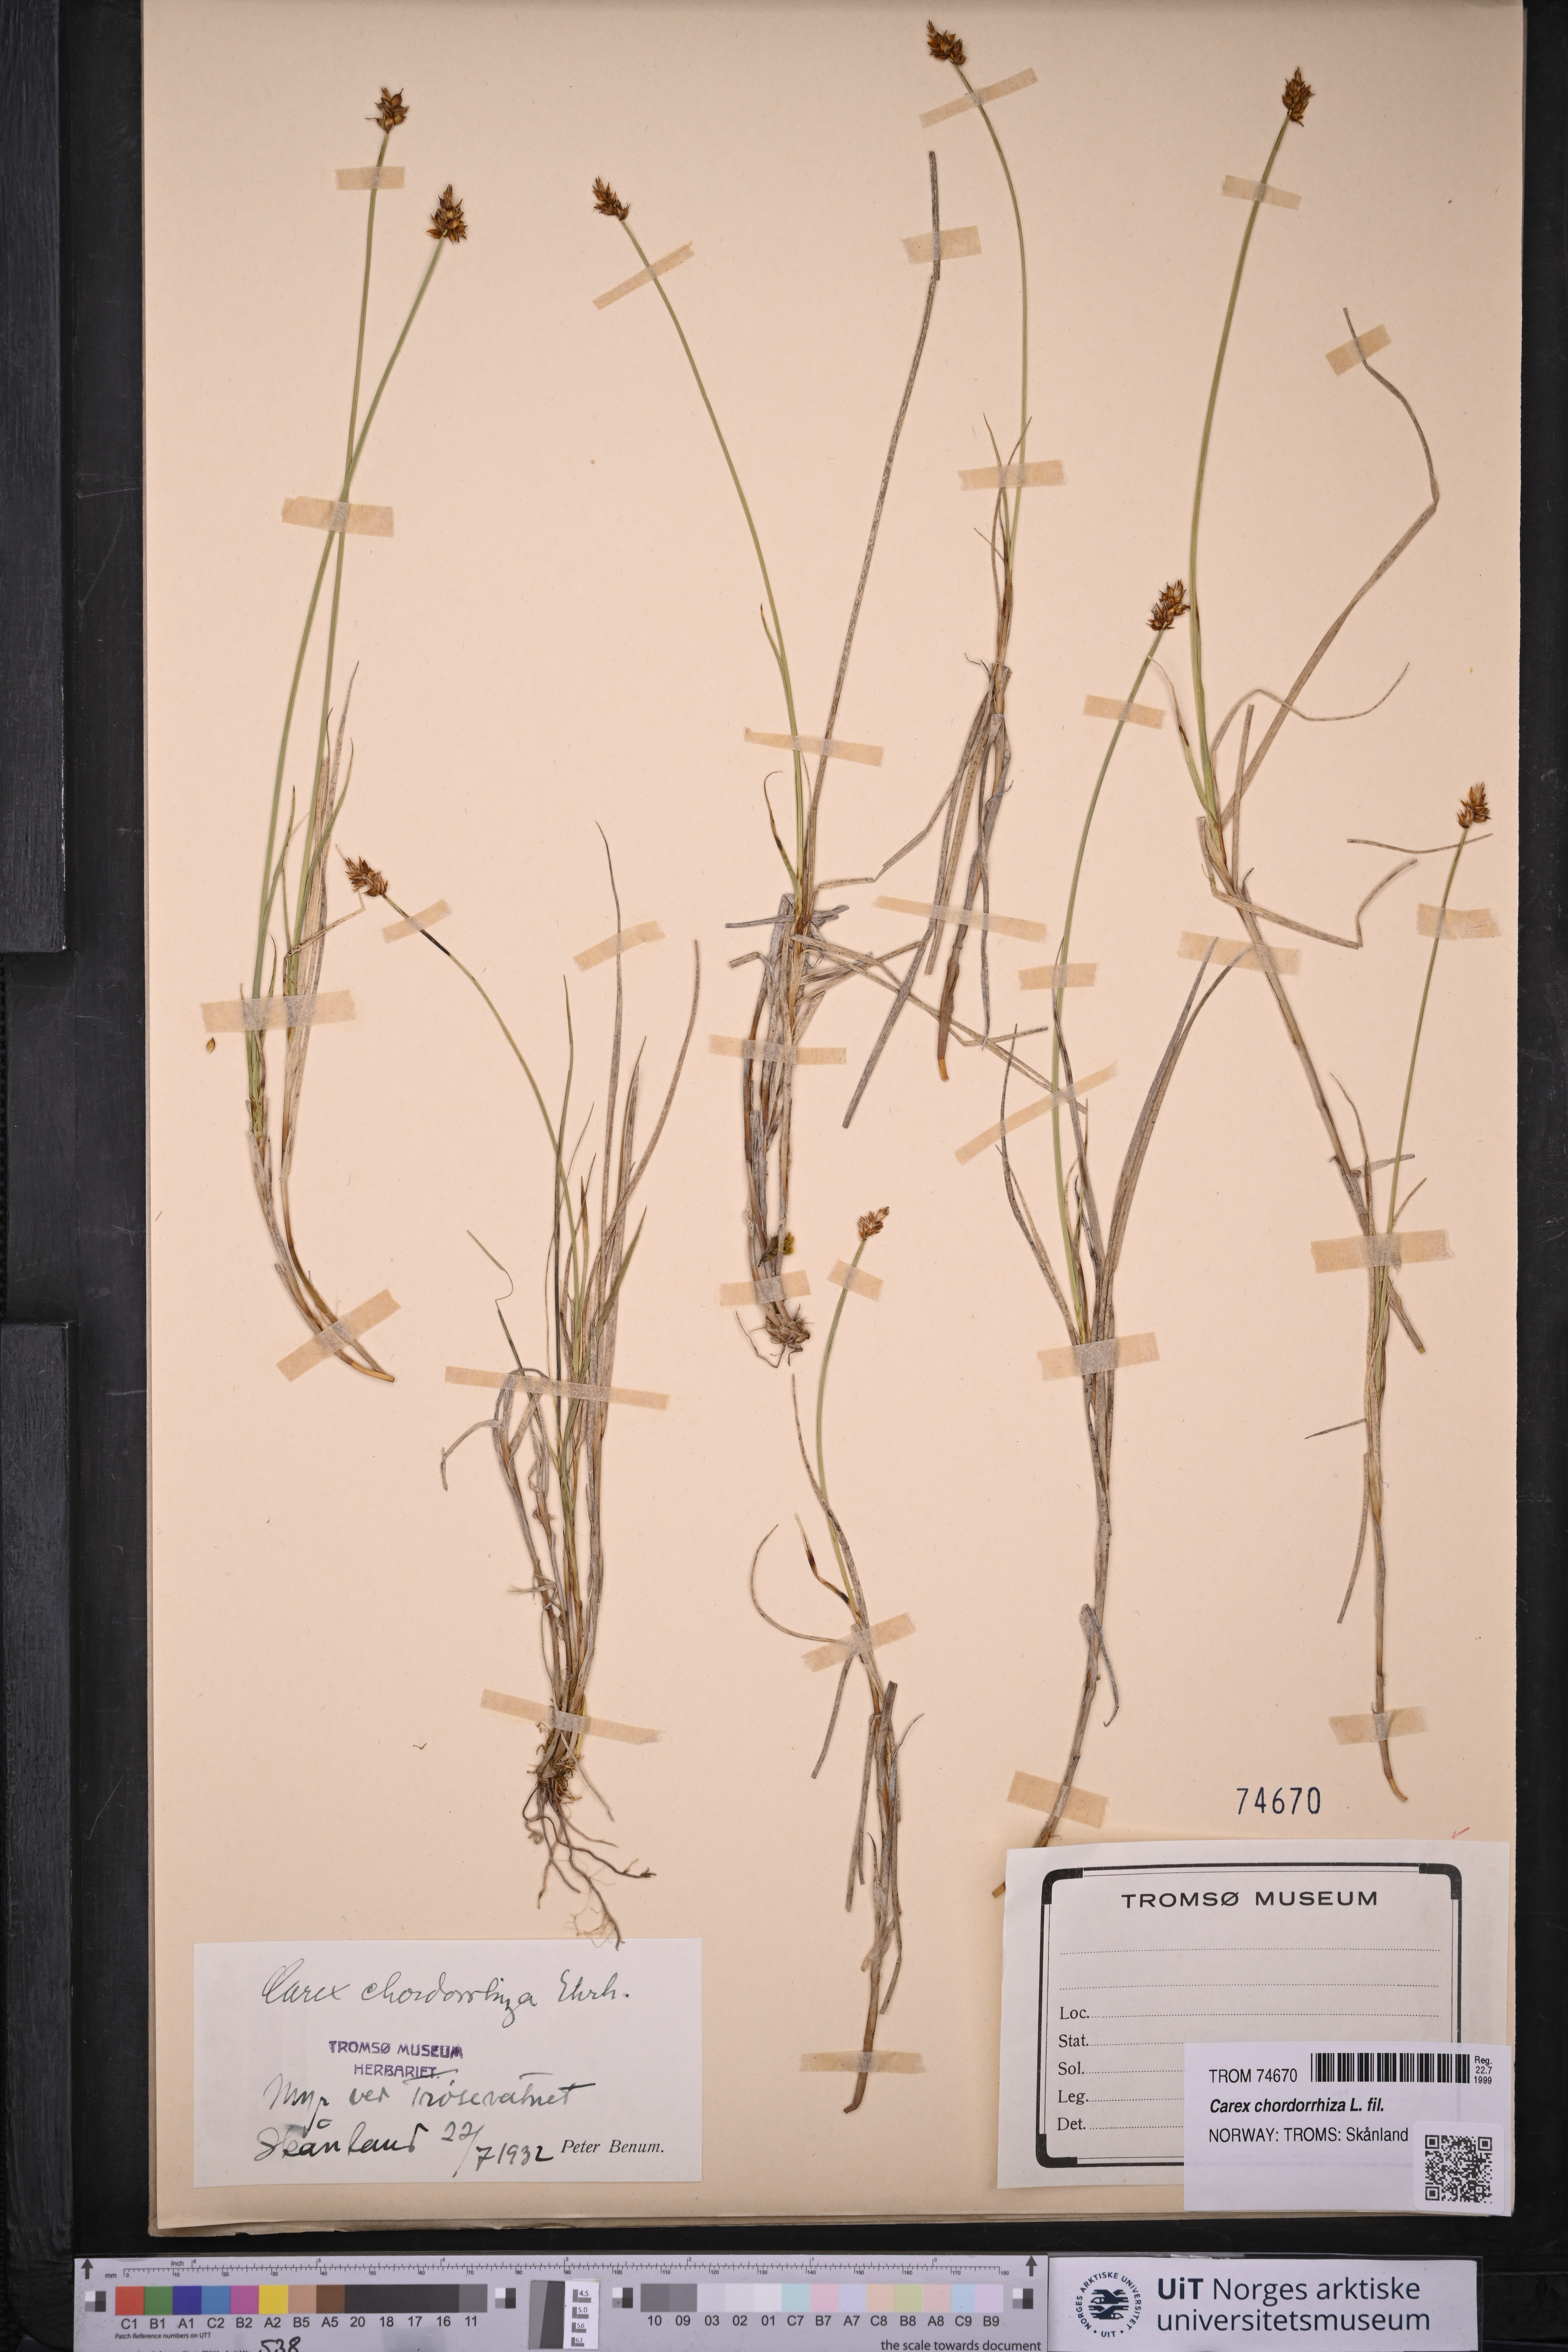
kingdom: Plantae
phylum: Tracheophyta
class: Liliopsida
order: Poales
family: Cyperaceae
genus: Carex
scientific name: Carex chordorrhiza
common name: String sedge
